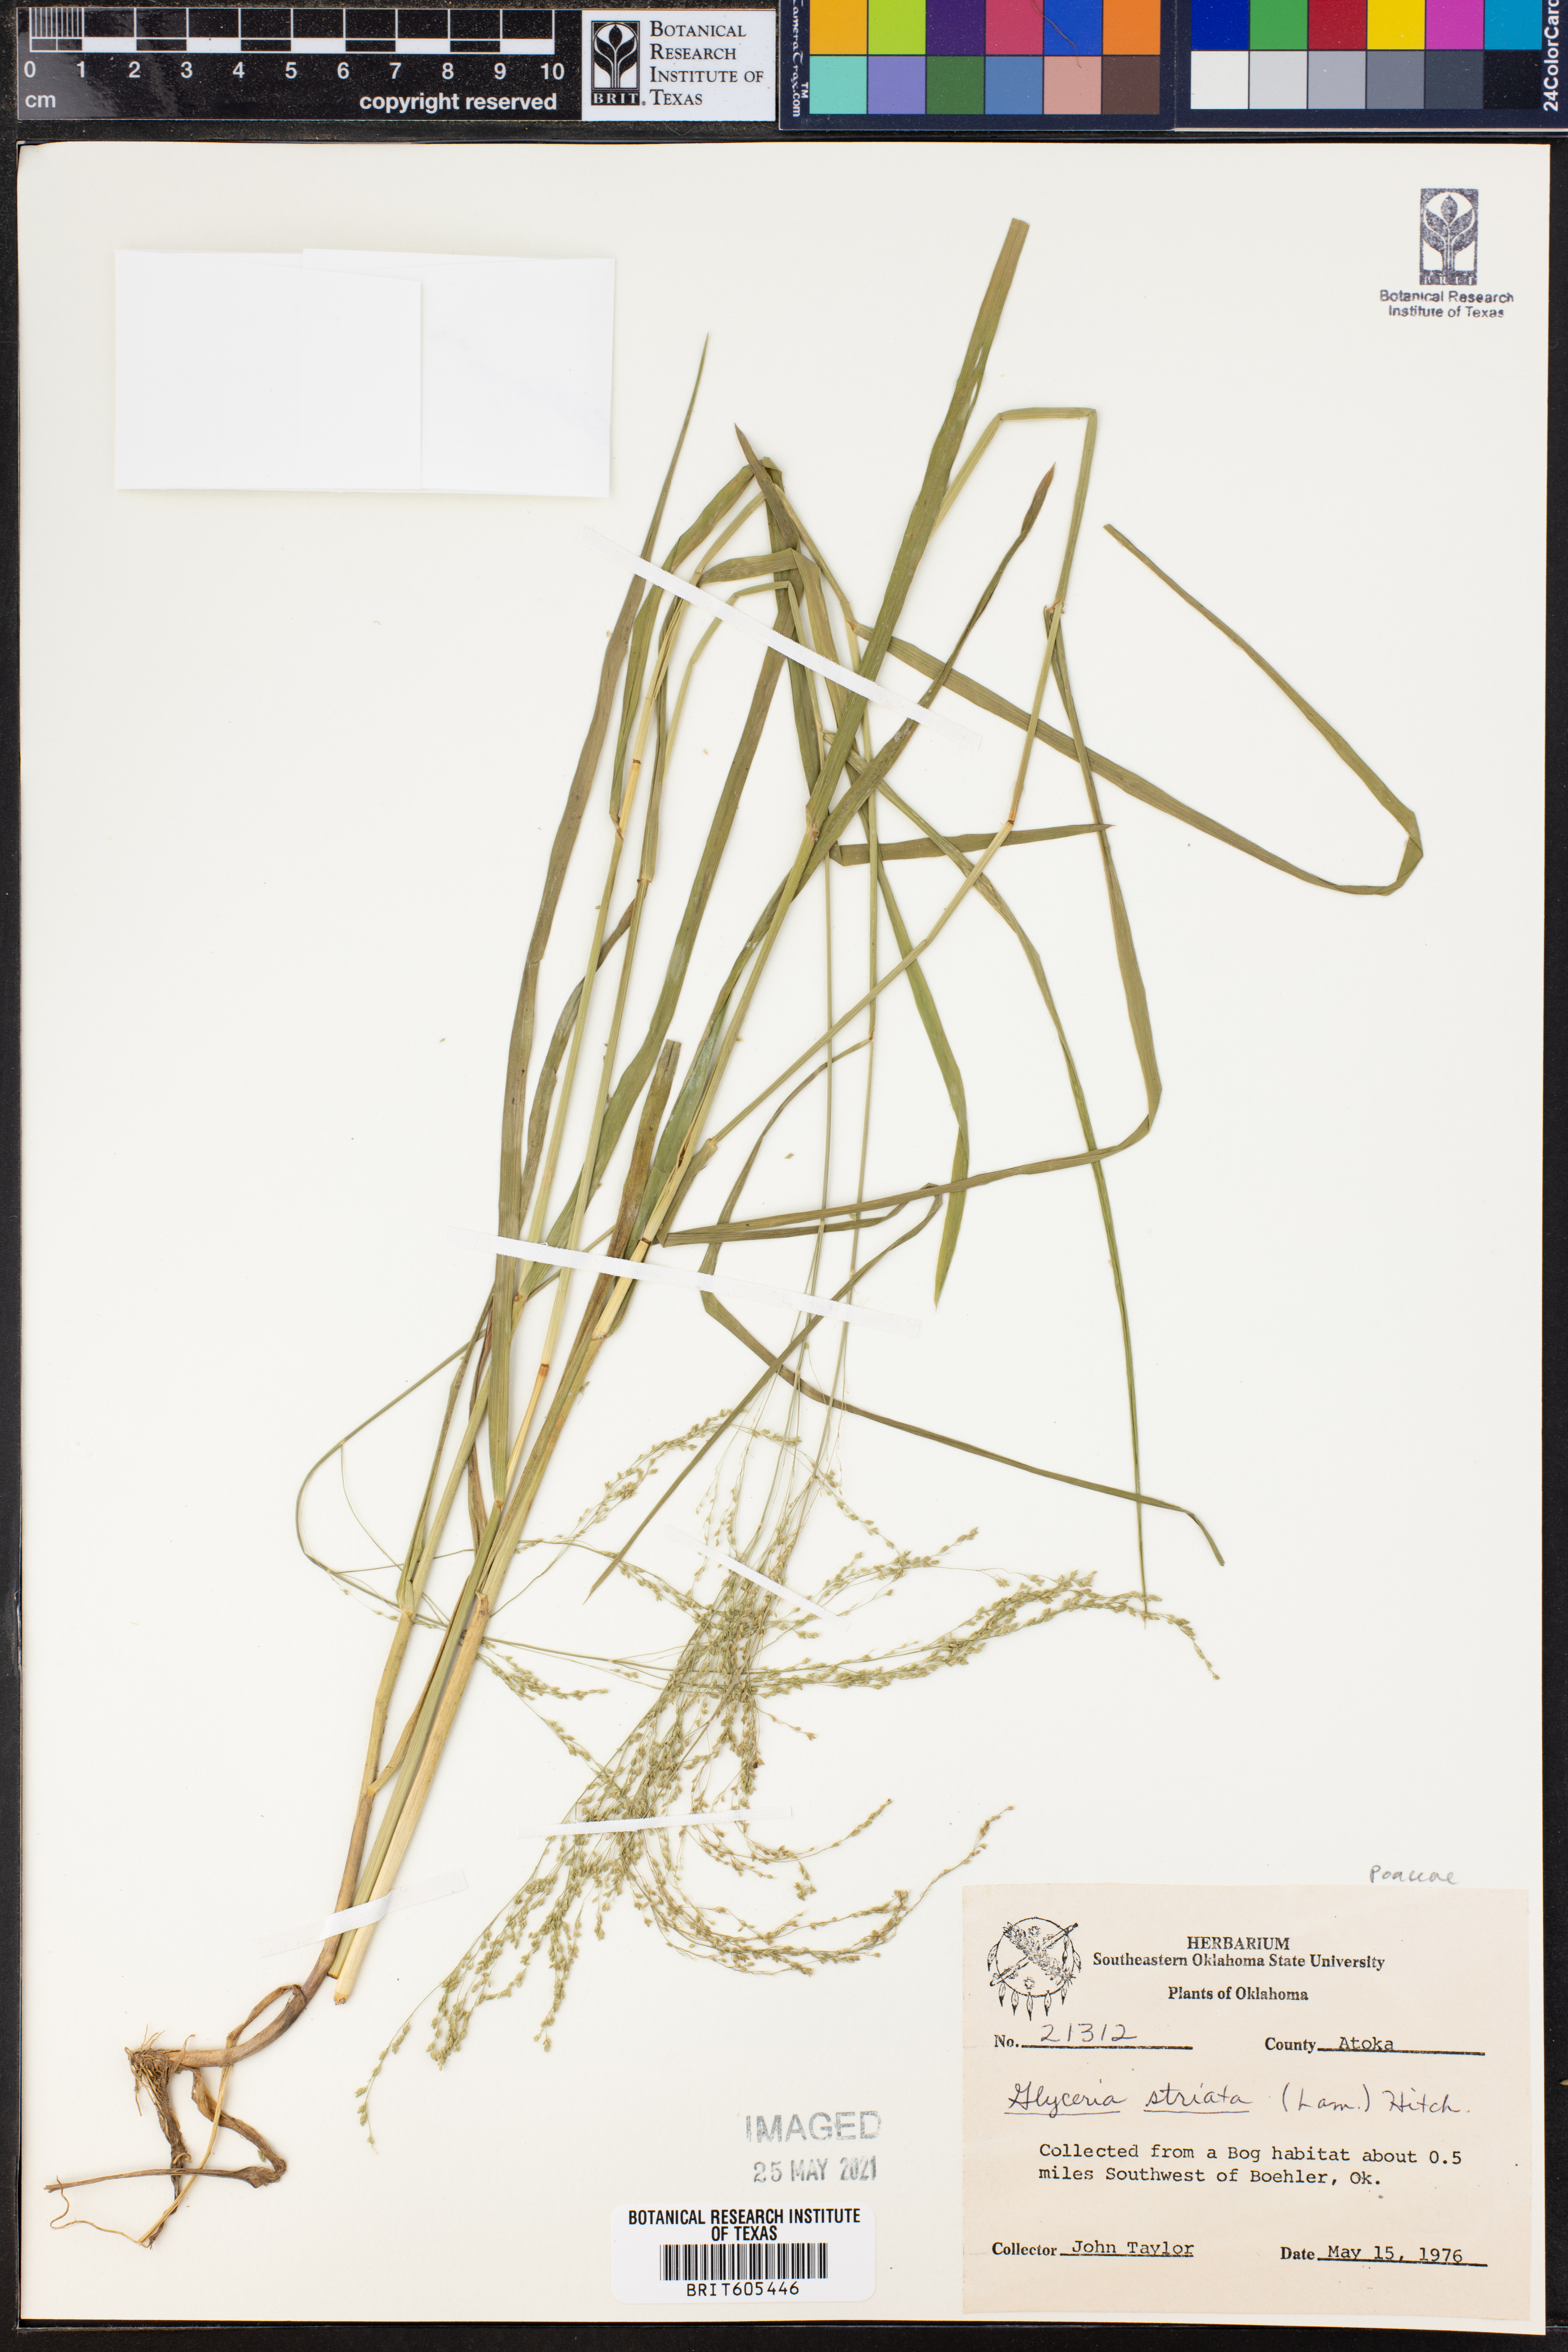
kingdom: Plantae
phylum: Tracheophyta
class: Liliopsida
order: Poales
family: Poaceae
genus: Glyceria
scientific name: Glyceria striata
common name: Fowl manna grass
